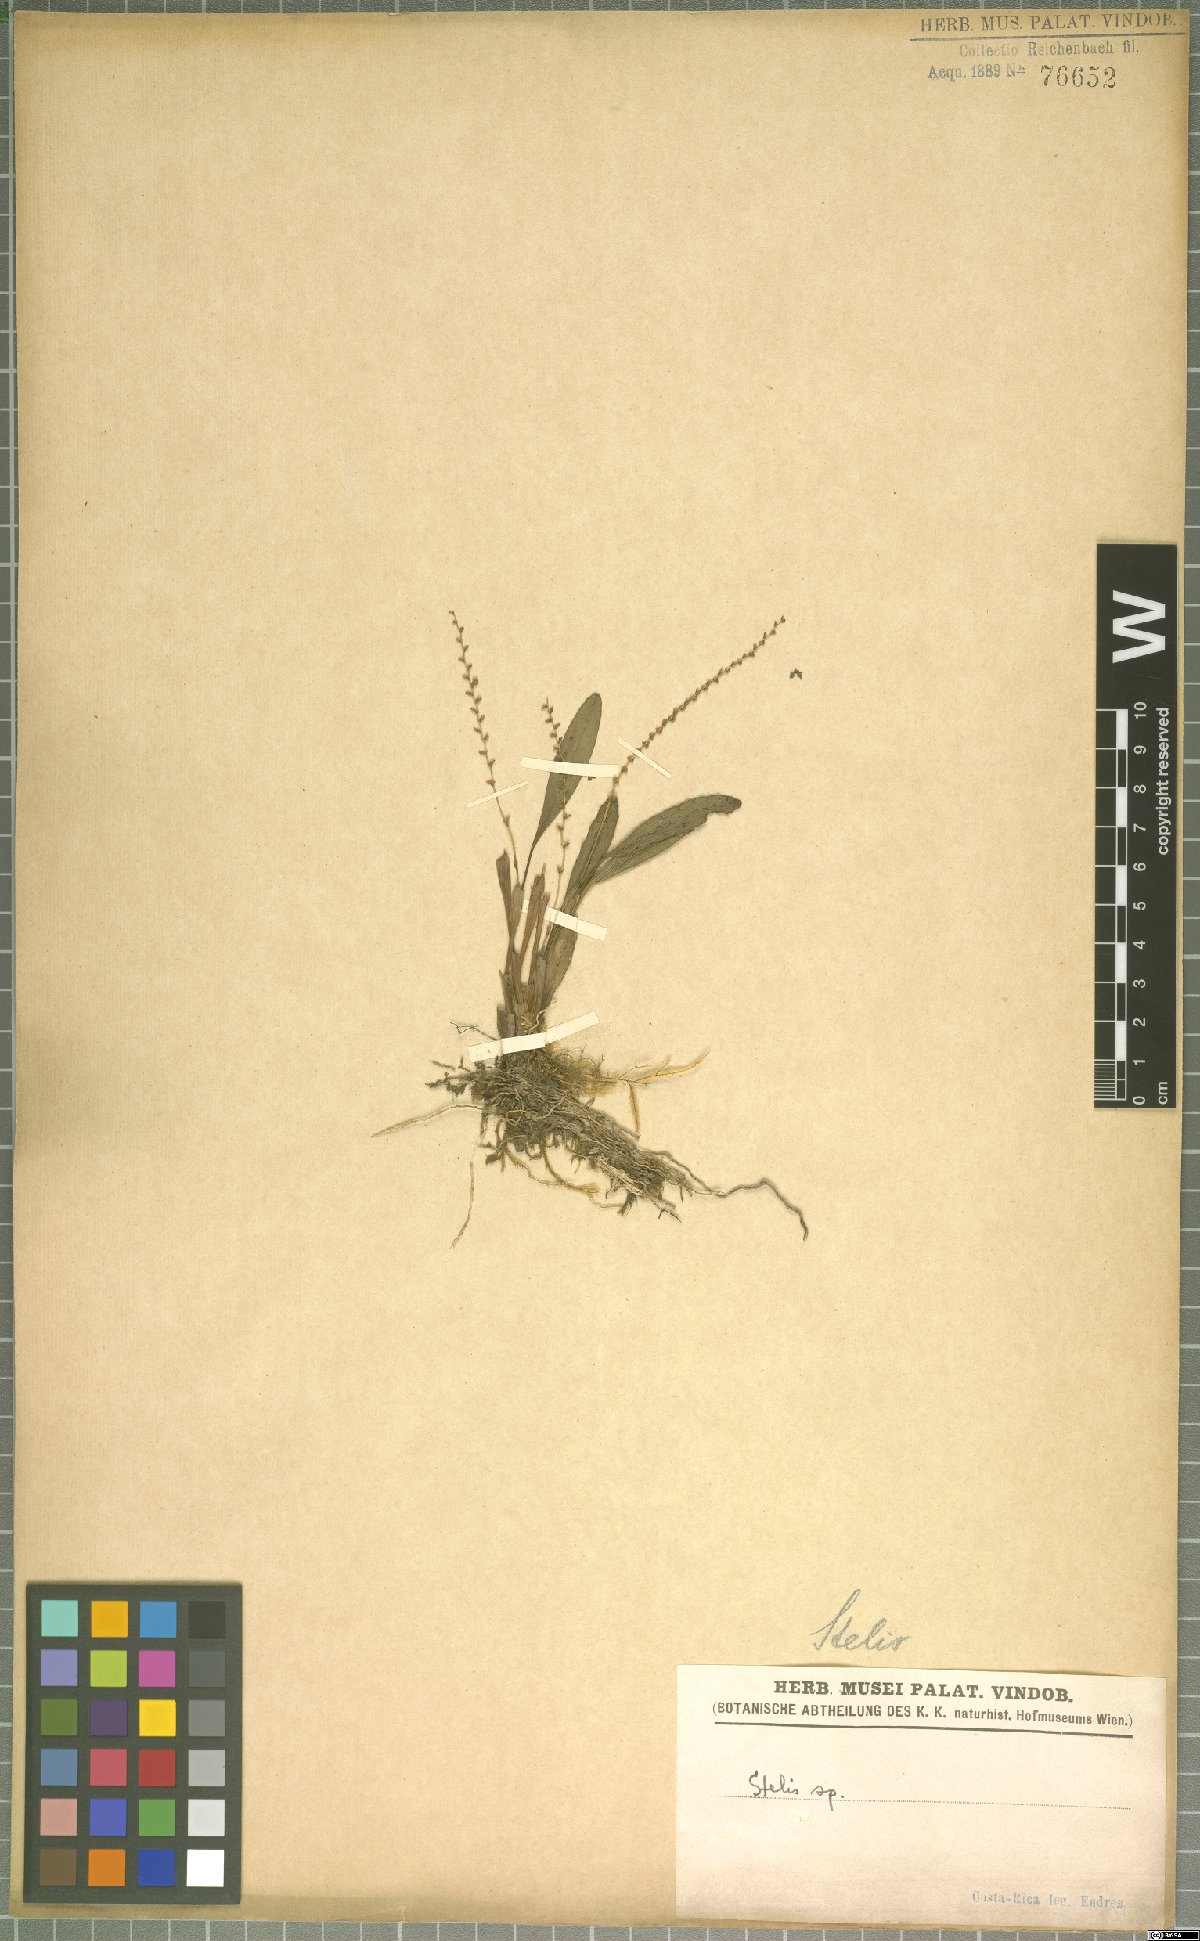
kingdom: Plantae
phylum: Tracheophyta
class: Liliopsida
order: Asparagales
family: Orchidaceae
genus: Stelis
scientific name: Stelis
